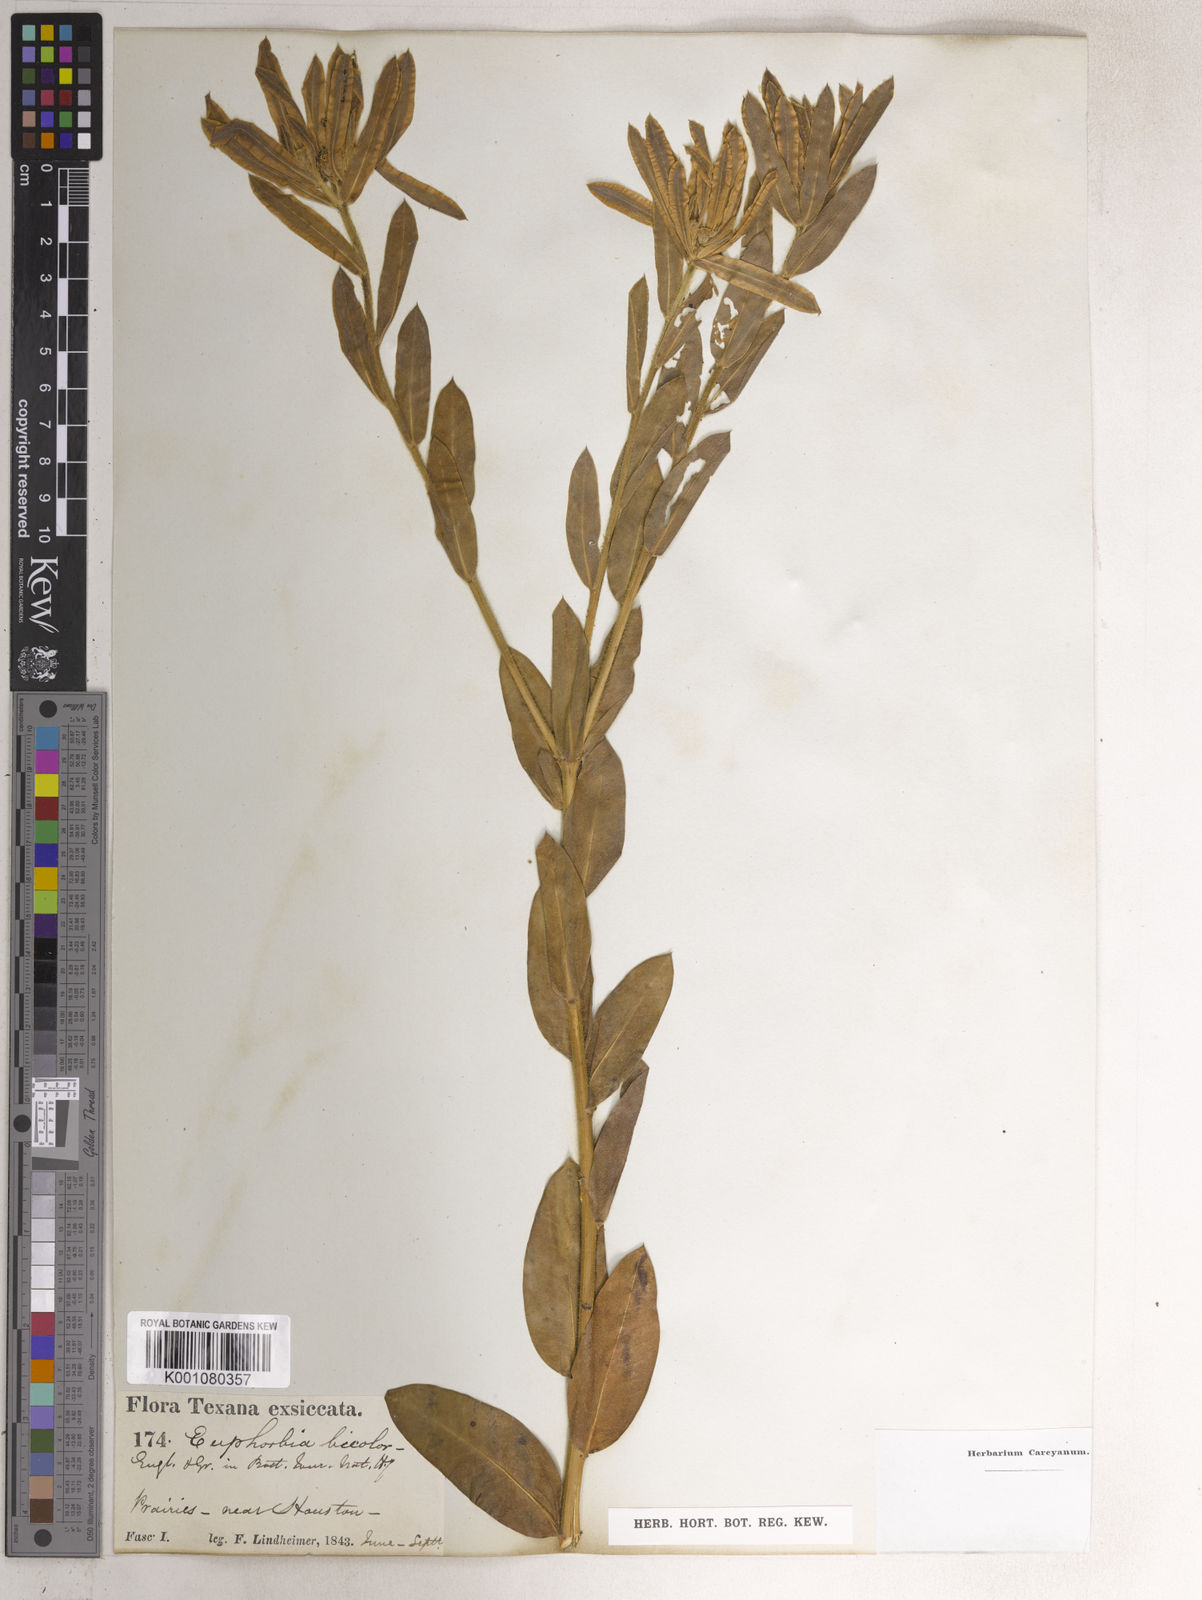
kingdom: Plantae
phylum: Tracheophyta
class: Magnoliopsida
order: Malpighiales
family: Euphorbiaceae
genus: Euphorbia
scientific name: Euphorbia bicolor
